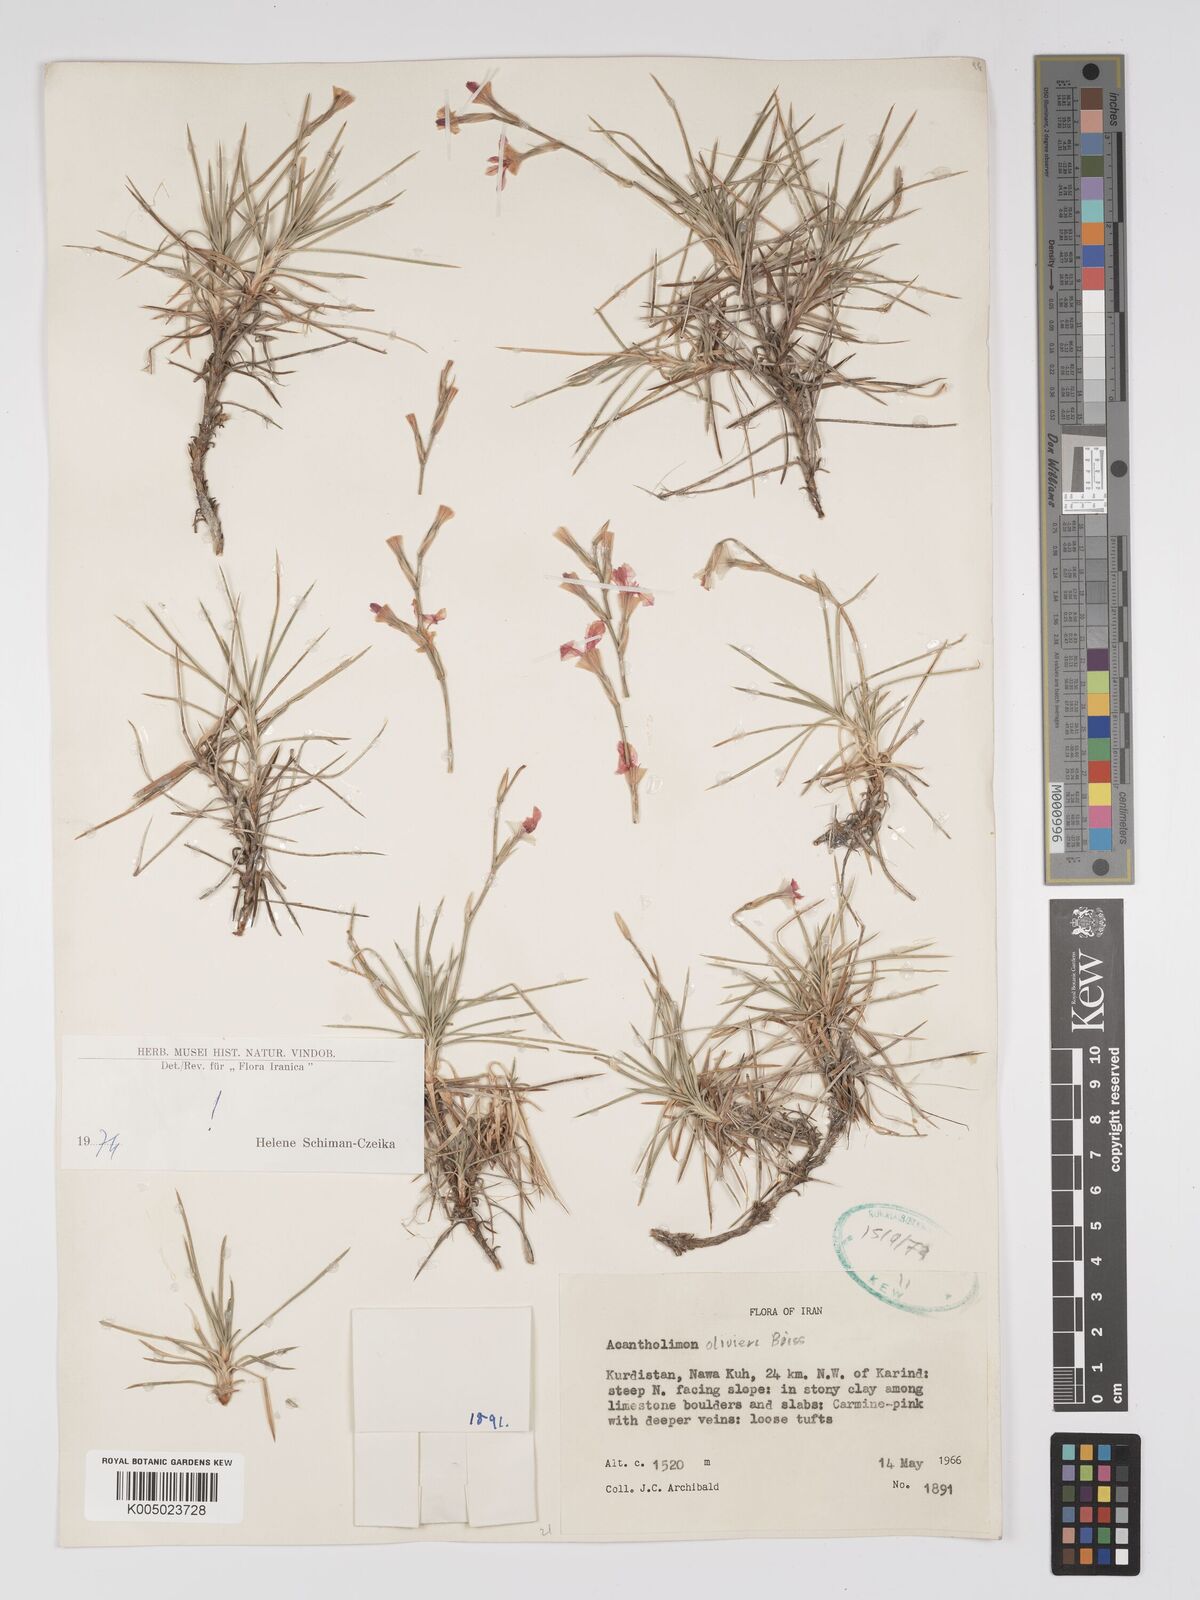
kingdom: Plantae
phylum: Tracheophyta
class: Magnoliopsida
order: Caryophyllales
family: Plumbaginaceae
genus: Acantholimon
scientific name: Acantholimon oliveri
